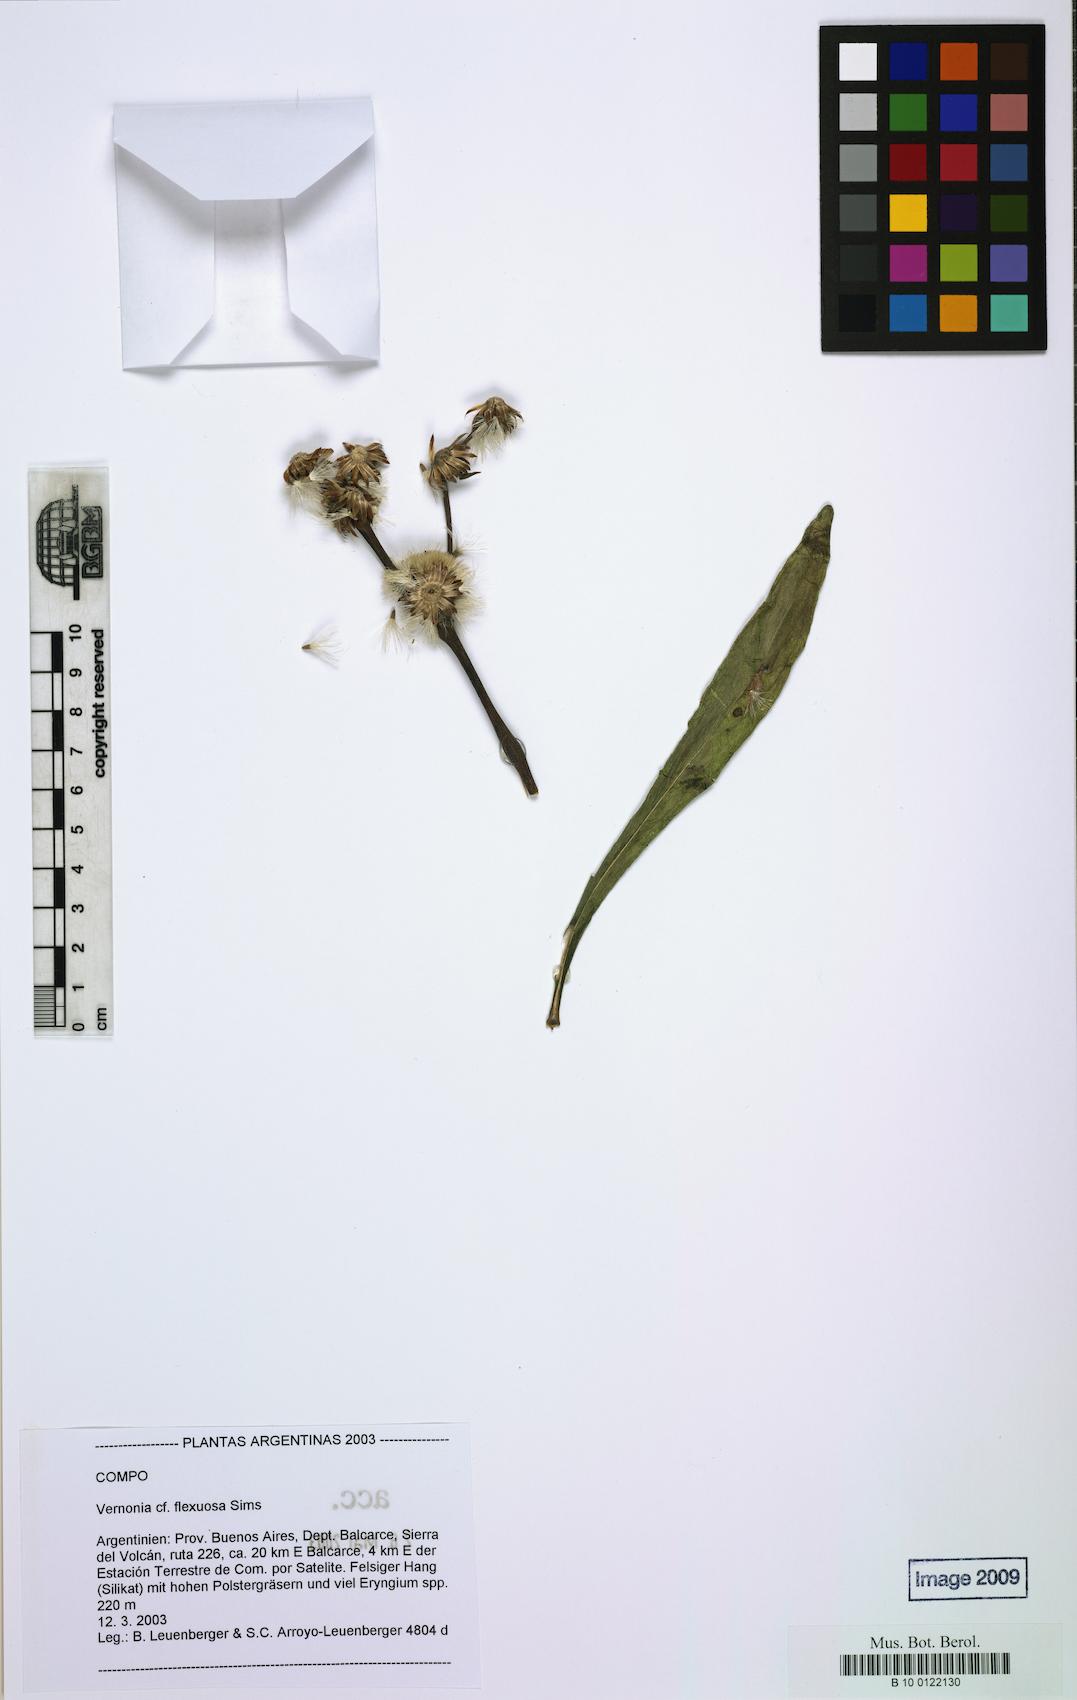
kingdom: Plantae
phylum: Tracheophyta
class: Magnoliopsida
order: Asterales
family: Asteraceae
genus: Chrysolaena
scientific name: Chrysolaena flexuosa
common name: Zig-zag vernonia
